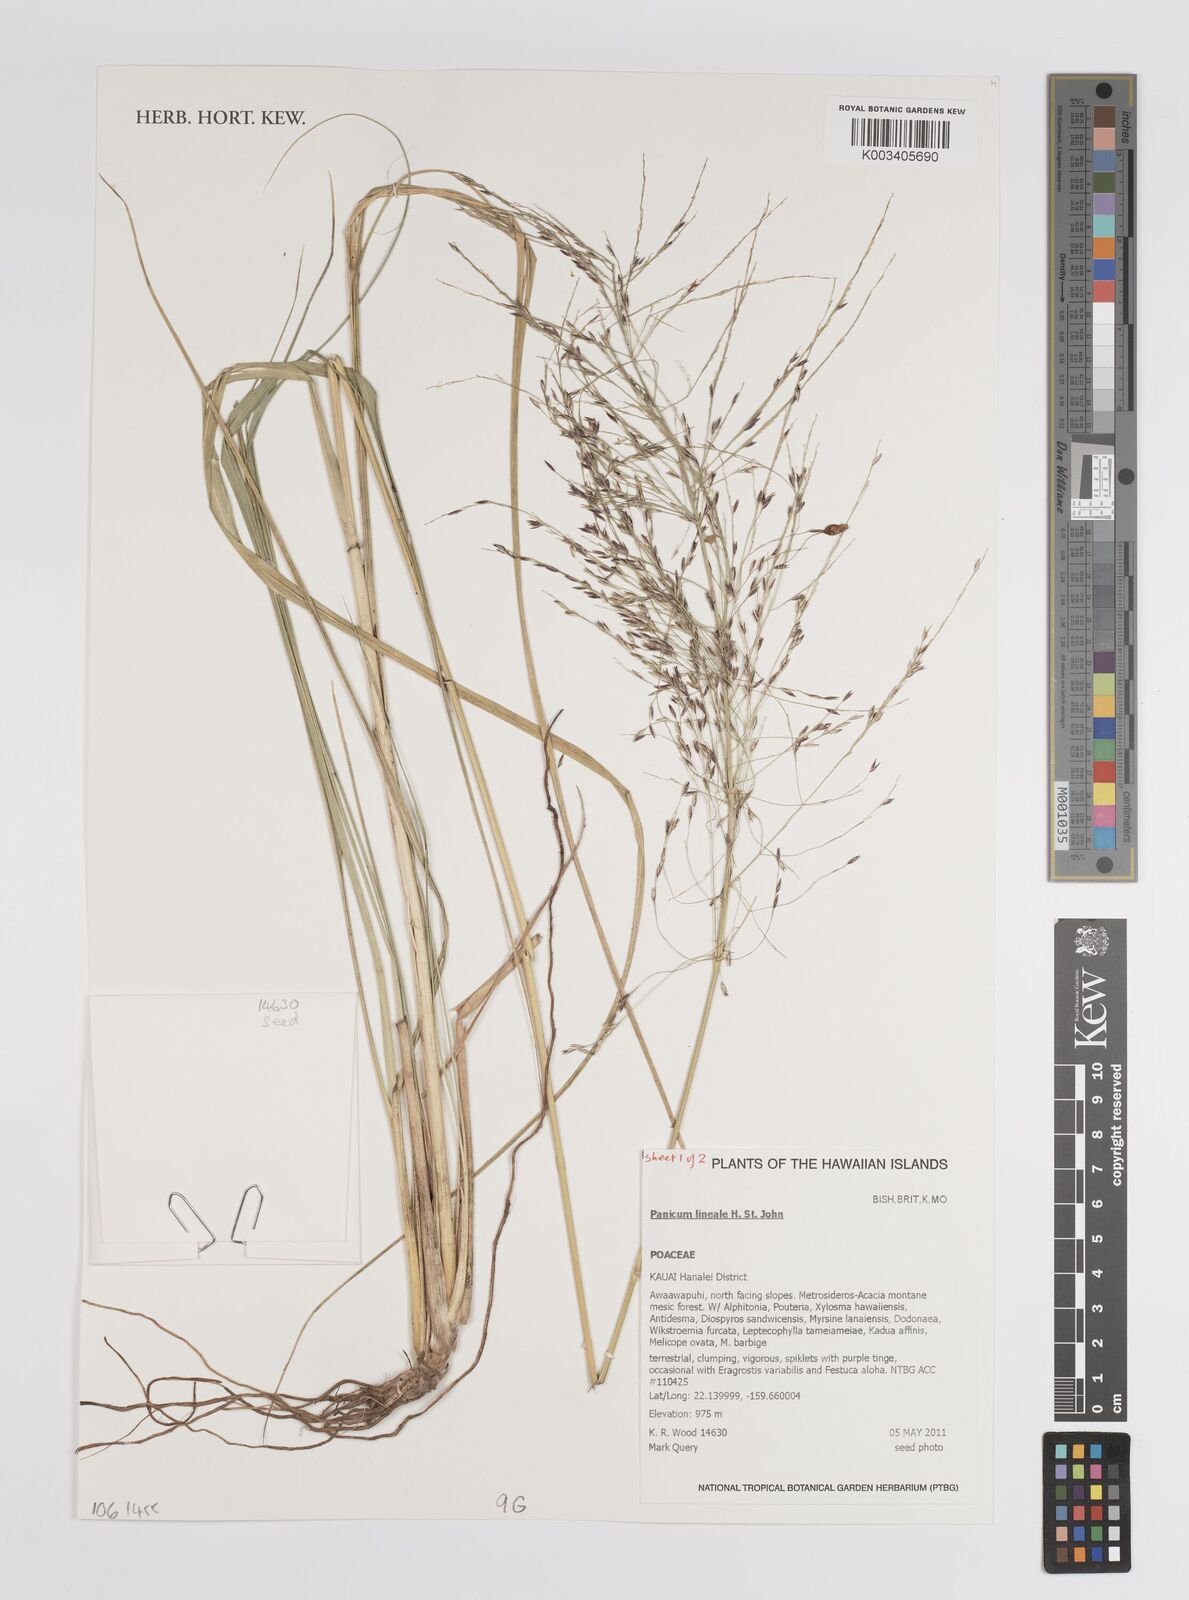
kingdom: Plantae
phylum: Tracheophyta
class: Liliopsida
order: Poales
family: Poaceae
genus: Panicum
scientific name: Panicum lineale
